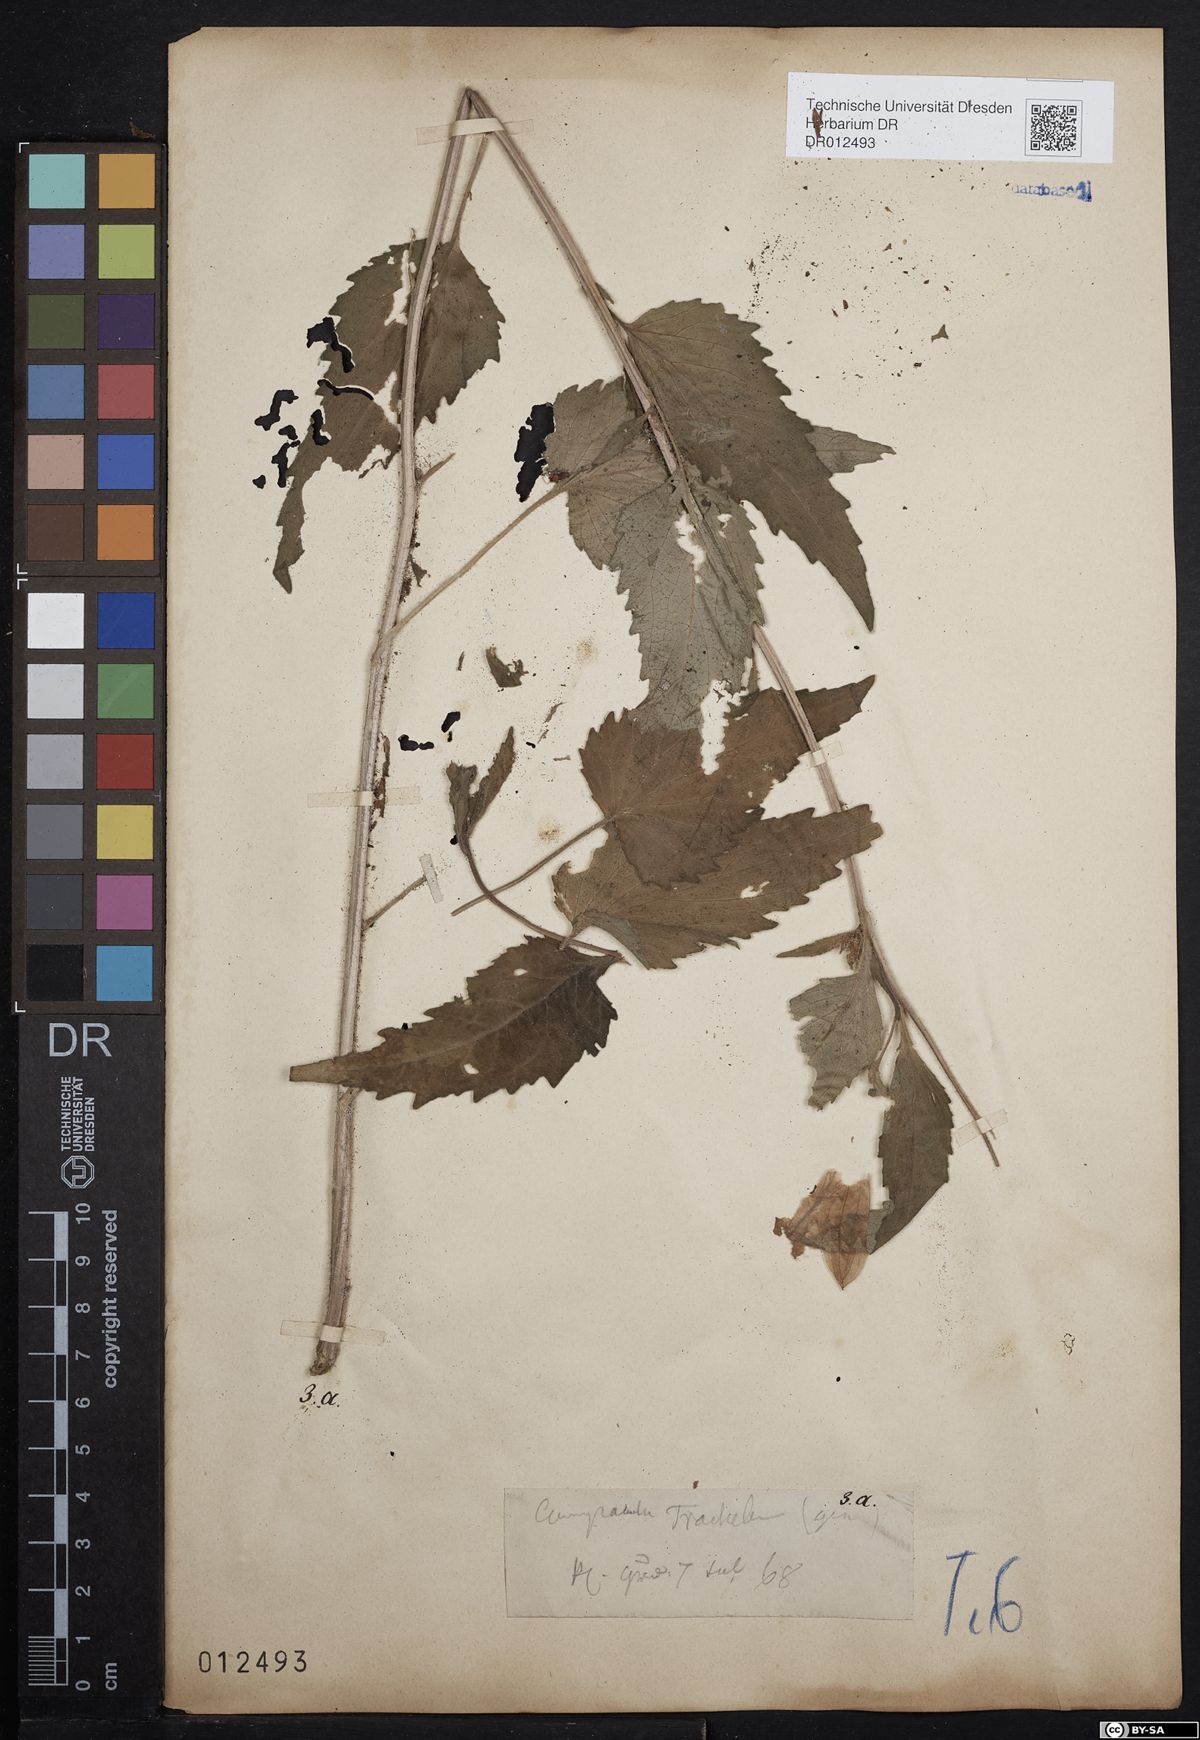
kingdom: Plantae
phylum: Tracheophyta
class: Magnoliopsida
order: Asterales
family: Campanulaceae
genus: Campanula
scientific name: Campanula trachelium
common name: Nettle-leaved bellflower
